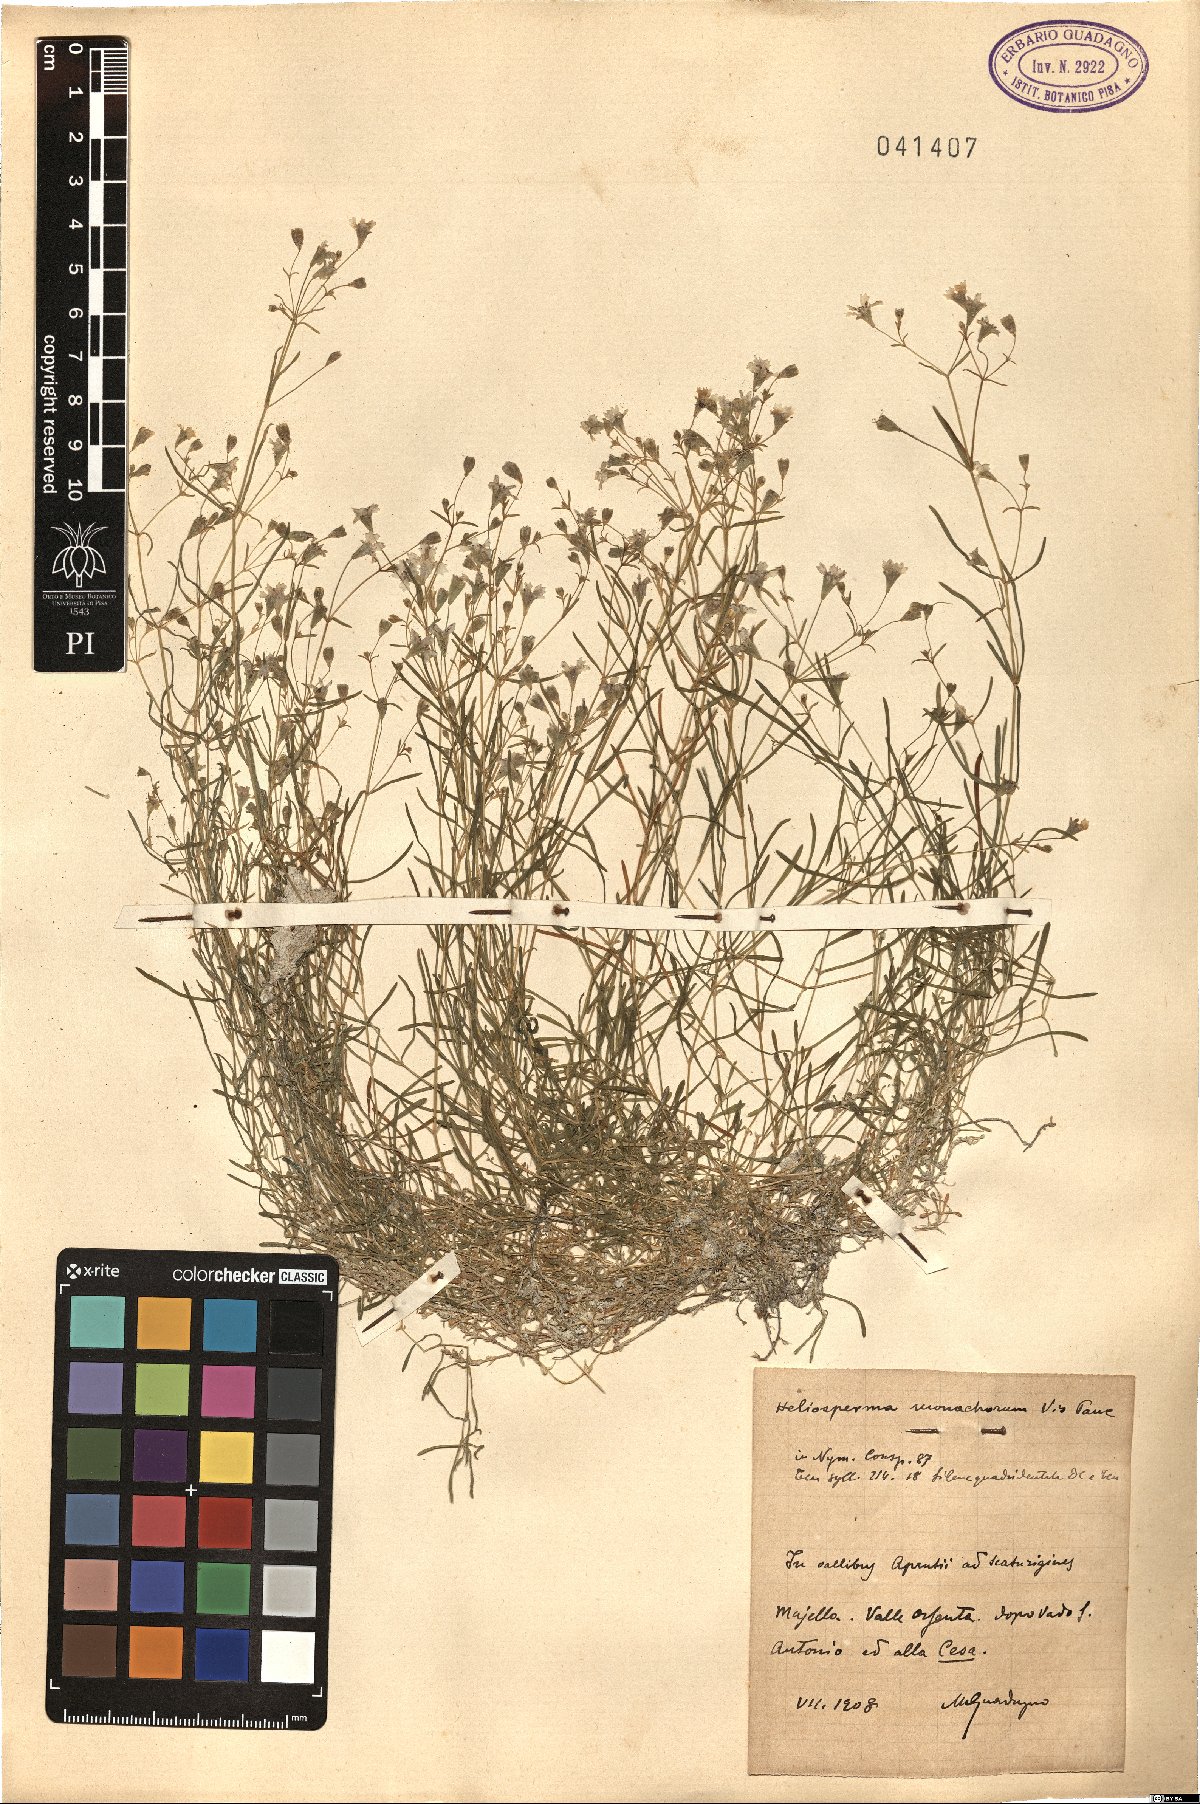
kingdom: Plantae
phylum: Tracheophyta
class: Magnoliopsida
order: Caryophyllales
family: Caryophyllaceae
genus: Heliosperma
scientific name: Heliosperma pusillum
